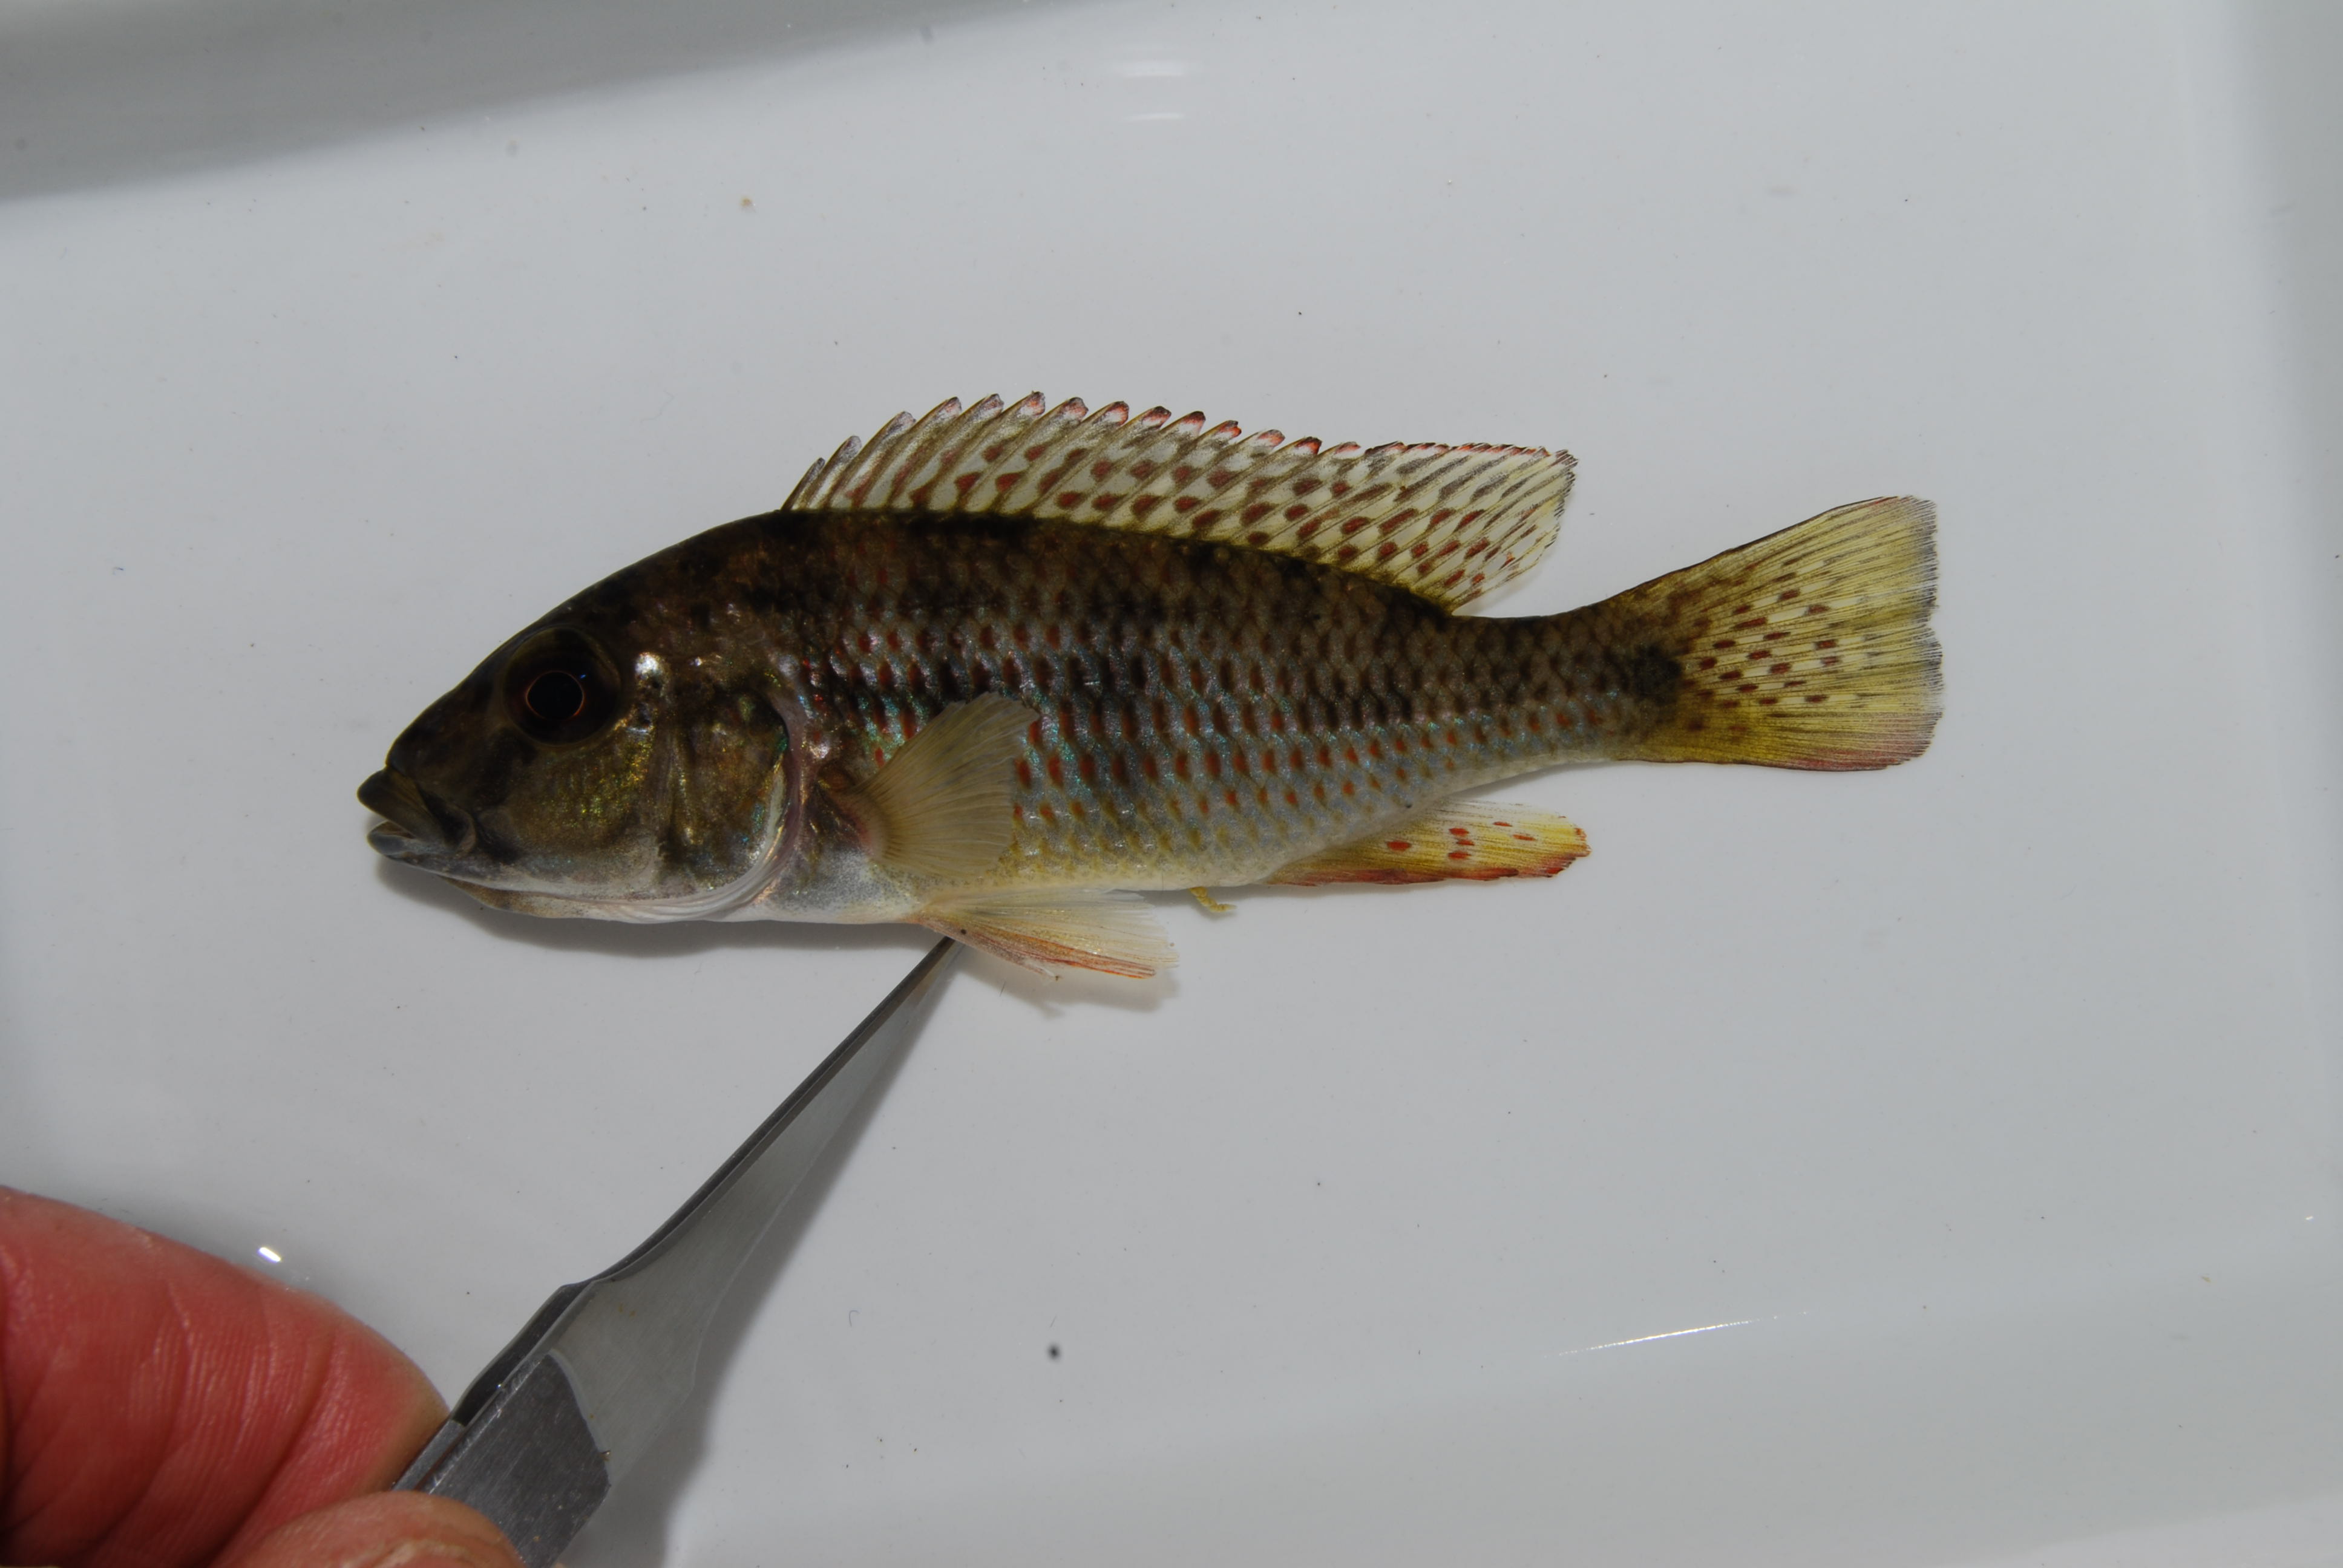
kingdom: Animalia
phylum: Chordata
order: Perciformes
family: Cichlidae
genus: Pharyngochromis
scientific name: Pharyngochromis
